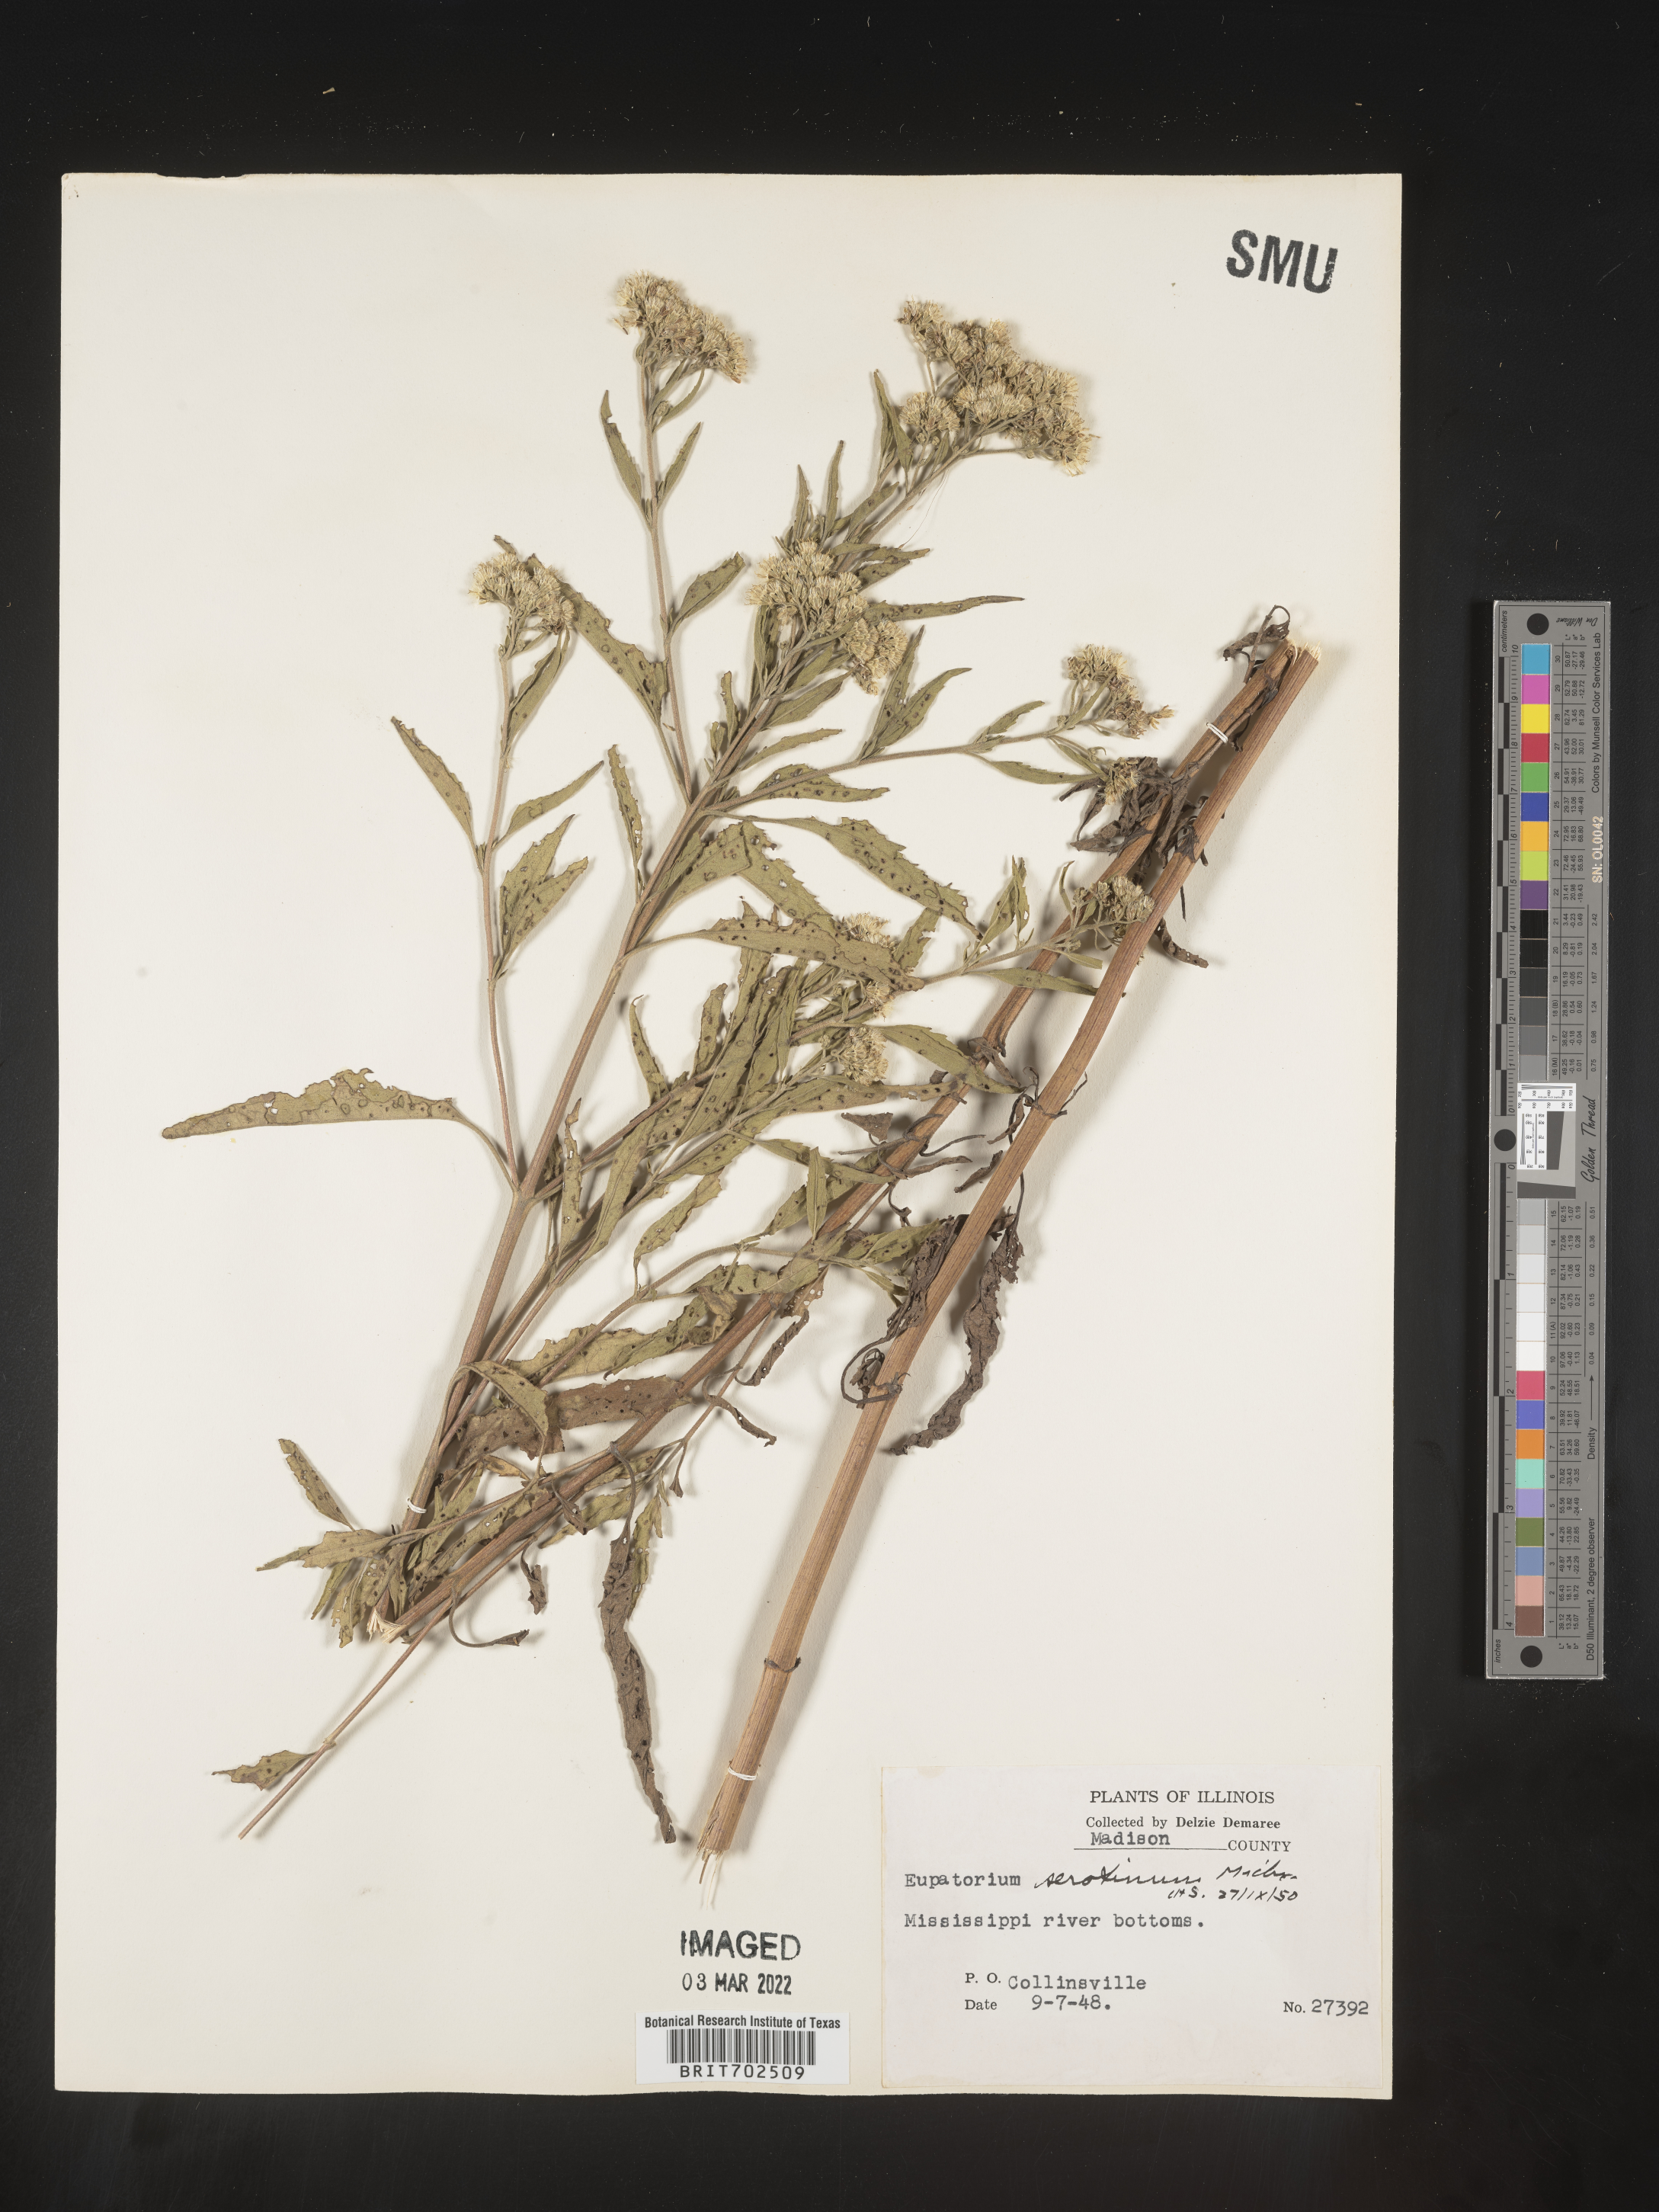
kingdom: Plantae
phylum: Tracheophyta
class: Magnoliopsida
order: Asterales
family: Asteraceae
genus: Eupatorium
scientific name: Eupatorium serotinum
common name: Late boneset
